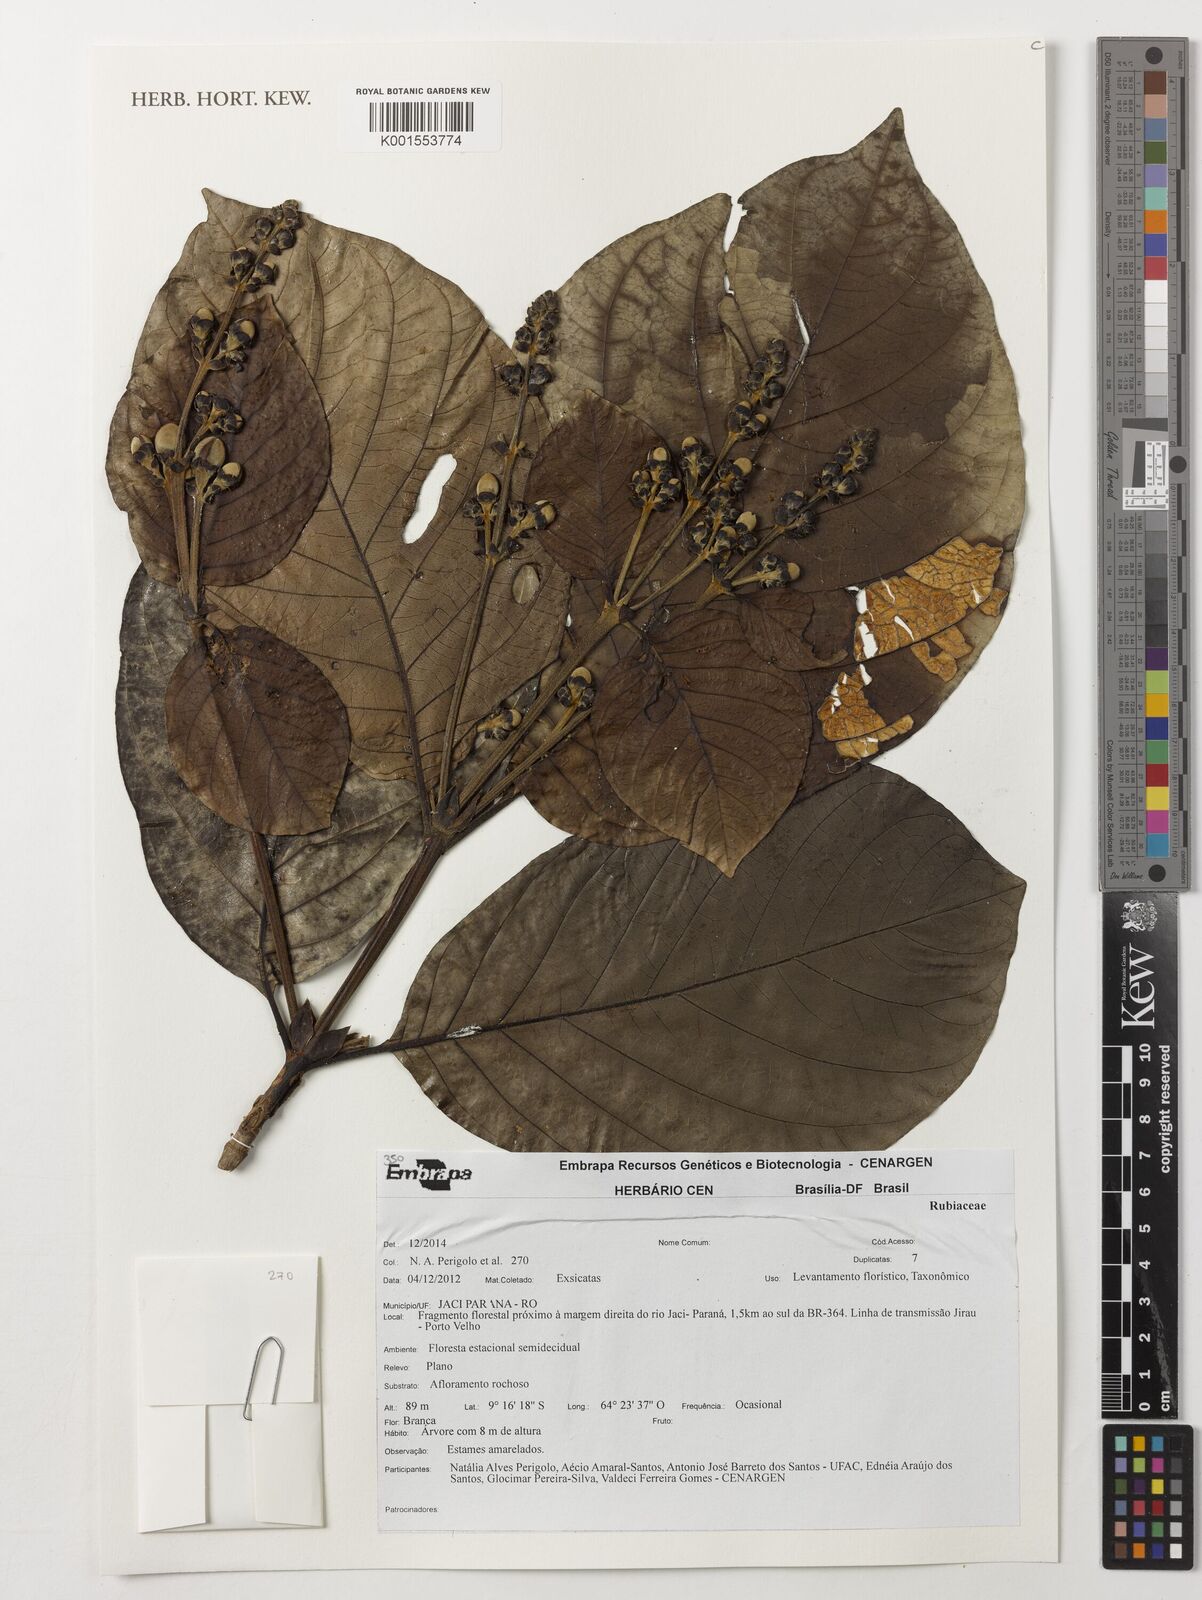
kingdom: Plantae
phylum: Tracheophyta
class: Magnoliopsida
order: Gentianales
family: Rubiaceae
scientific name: Rubiaceae
